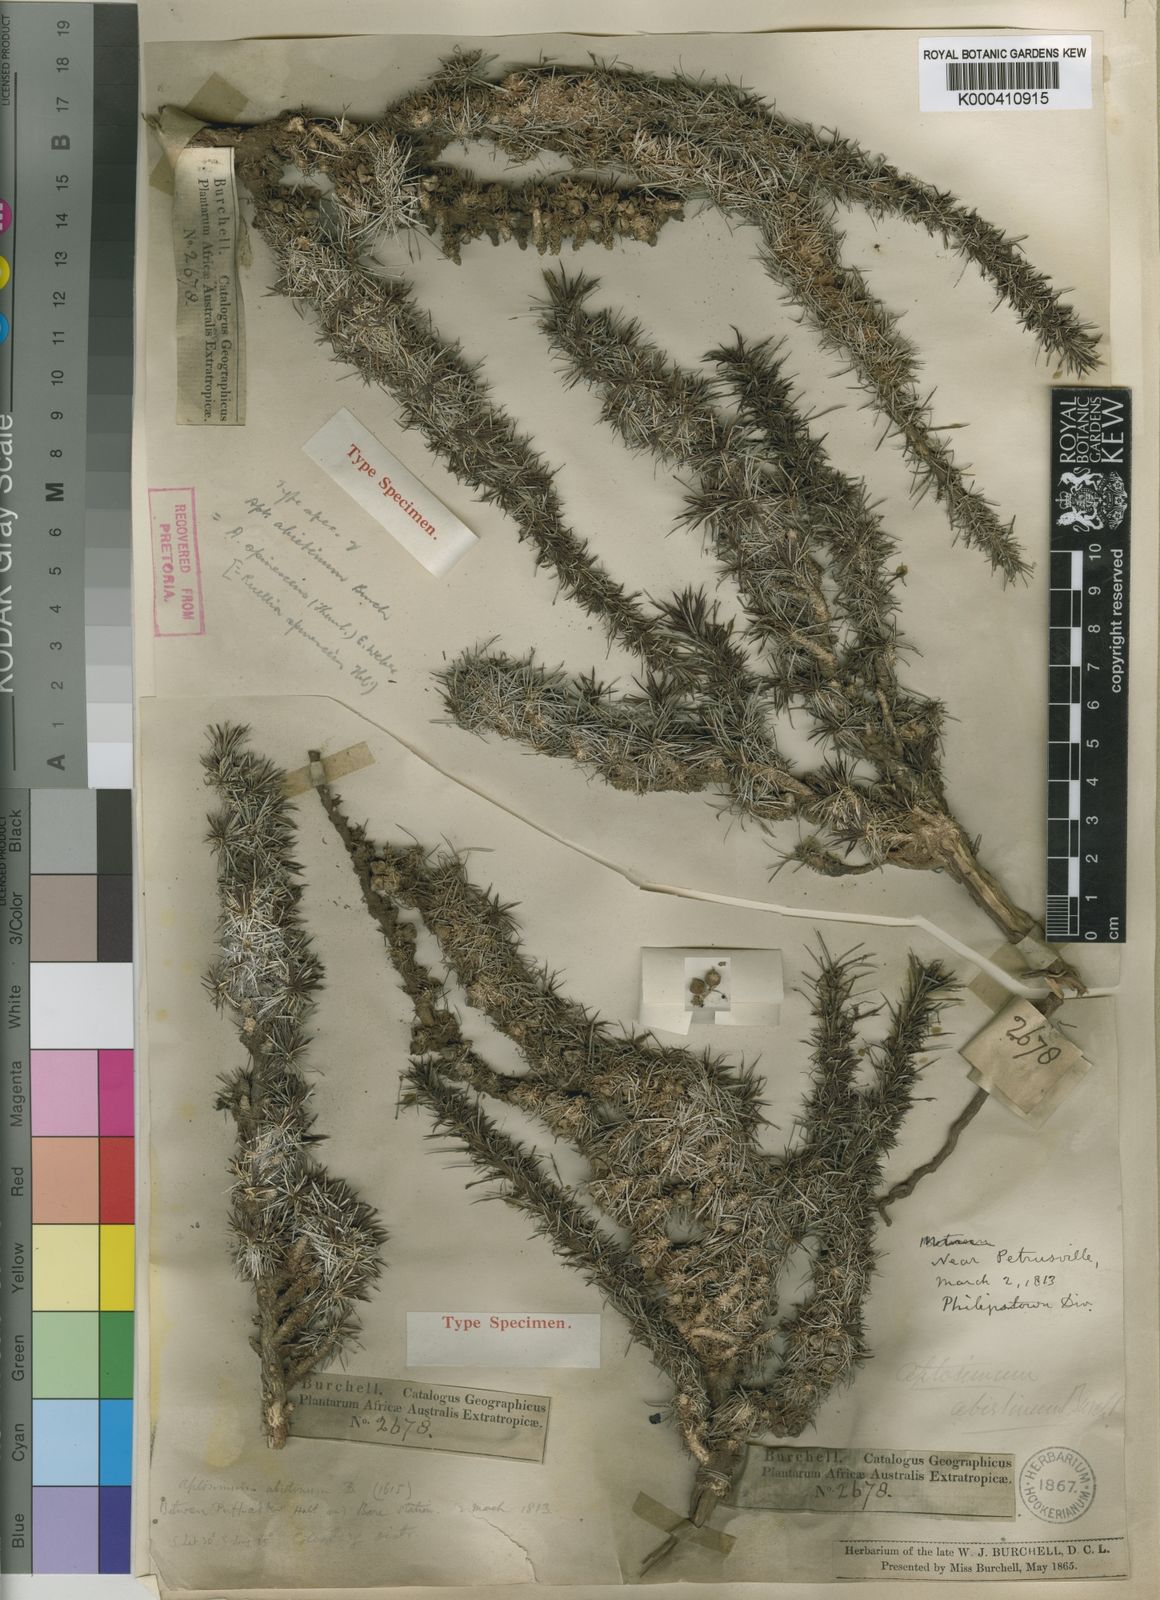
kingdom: Plantae
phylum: Tracheophyta
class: Magnoliopsida
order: Lamiales
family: Scrophulariaceae
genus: Aptosimum
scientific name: Aptosimum spinescens
